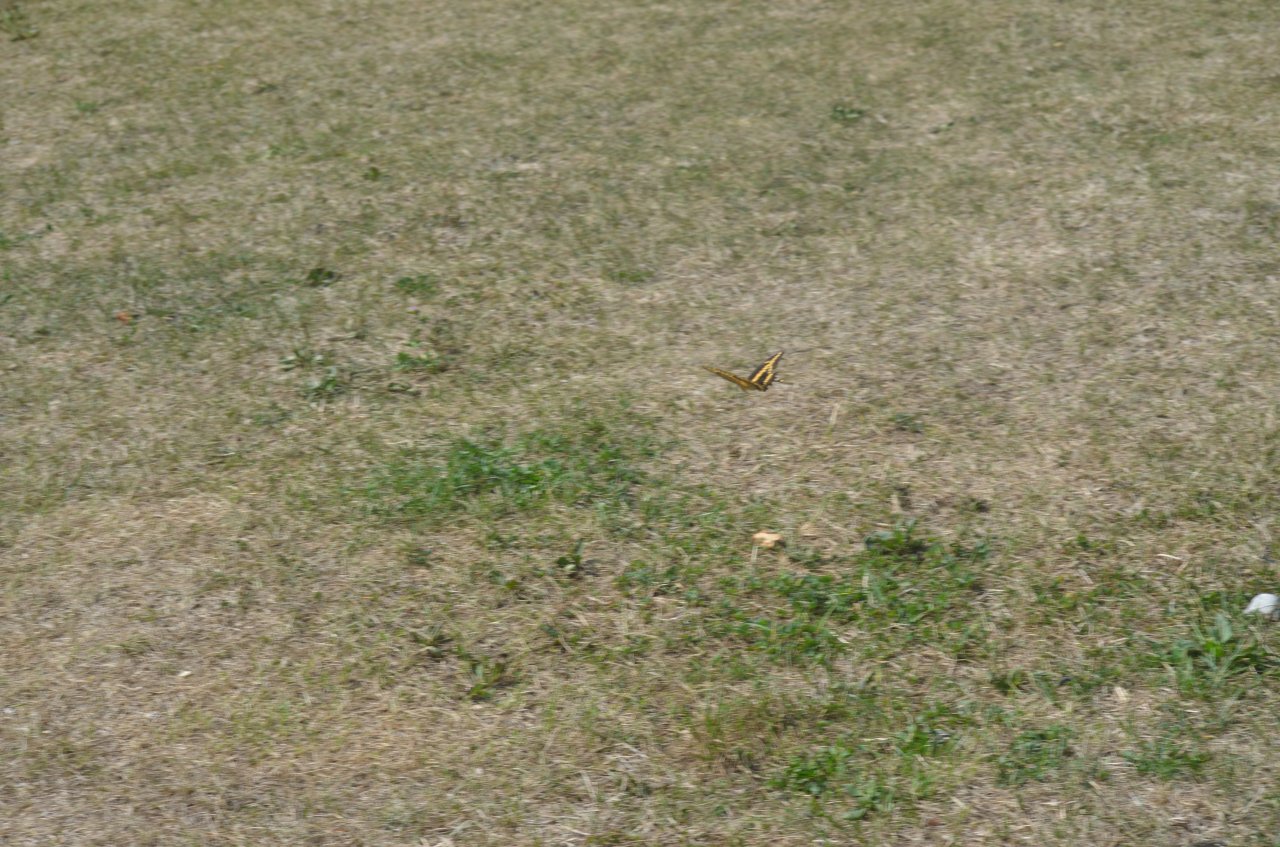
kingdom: Animalia
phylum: Arthropoda
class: Insecta
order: Lepidoptera
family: Papilionidae
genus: Papilio
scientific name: Papilio cresphontes
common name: Eastern Giant Swallowtail
